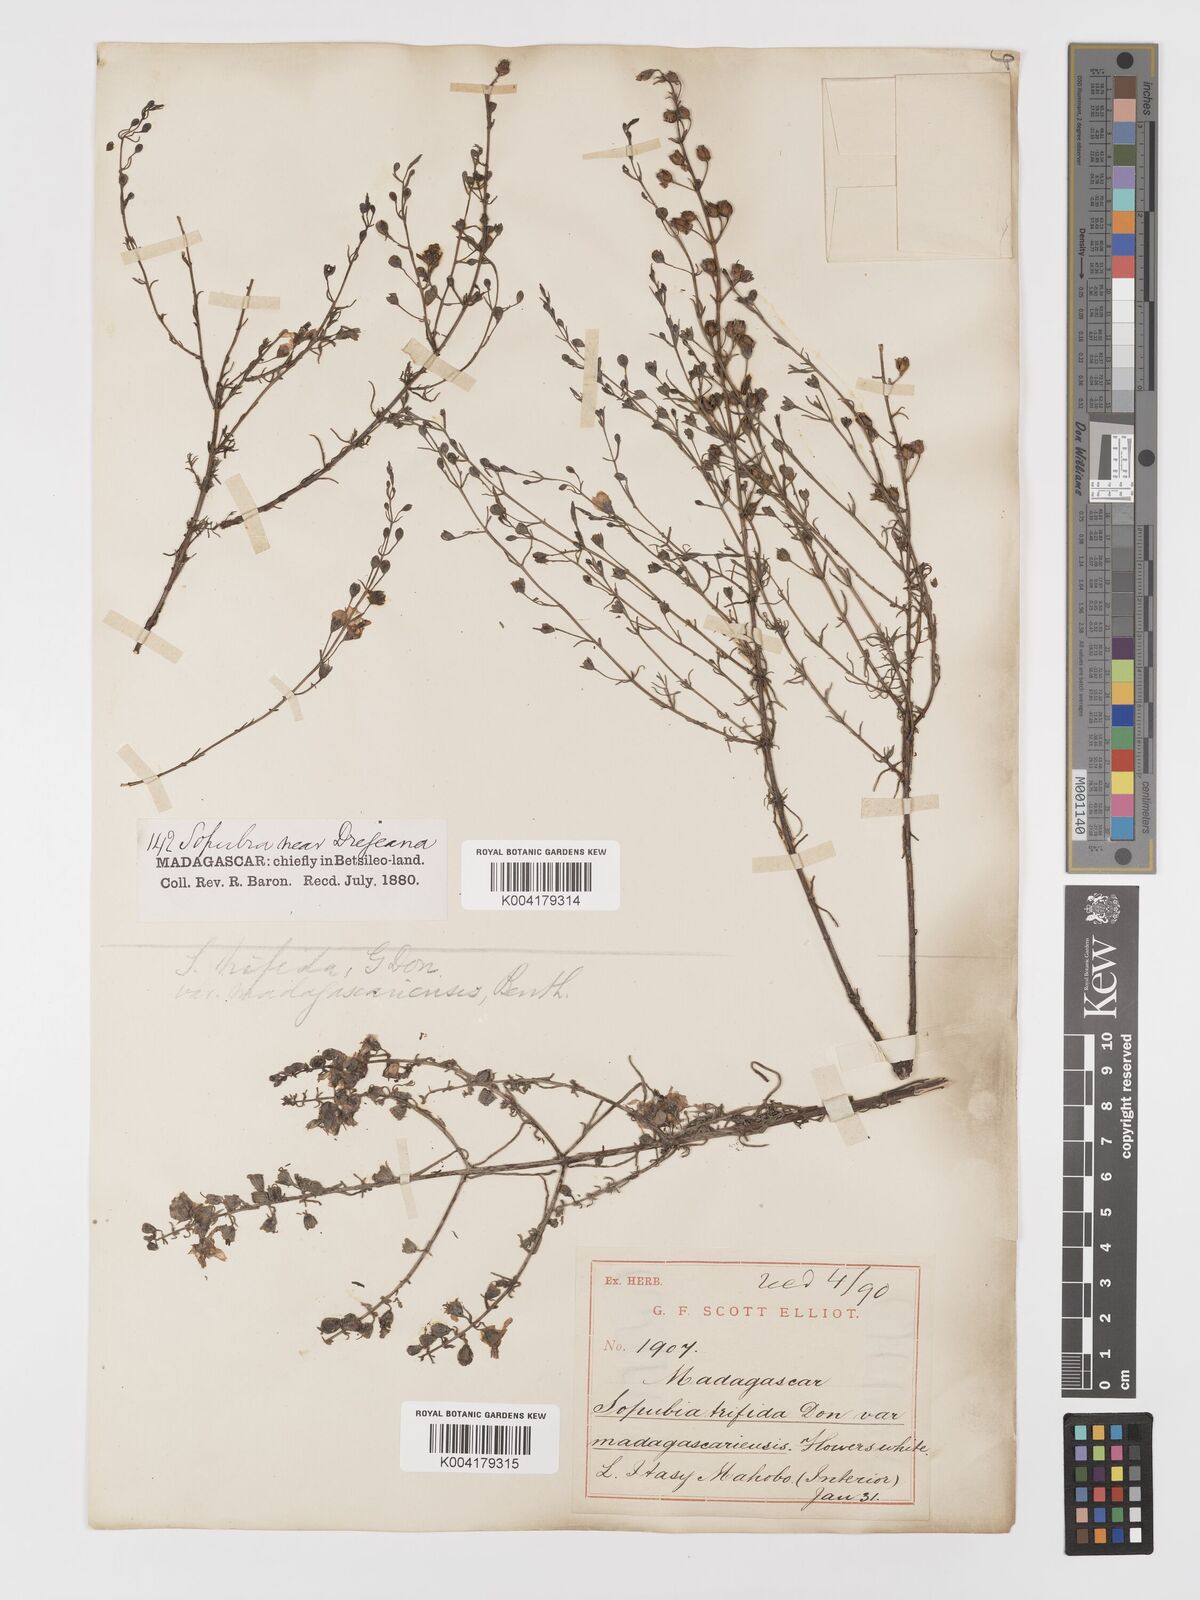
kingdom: Plantae
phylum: Tracheophyta
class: Magnoliopsida
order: Lamiales
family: Orobanchaceae
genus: Sopubia
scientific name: Sopubia trifida
